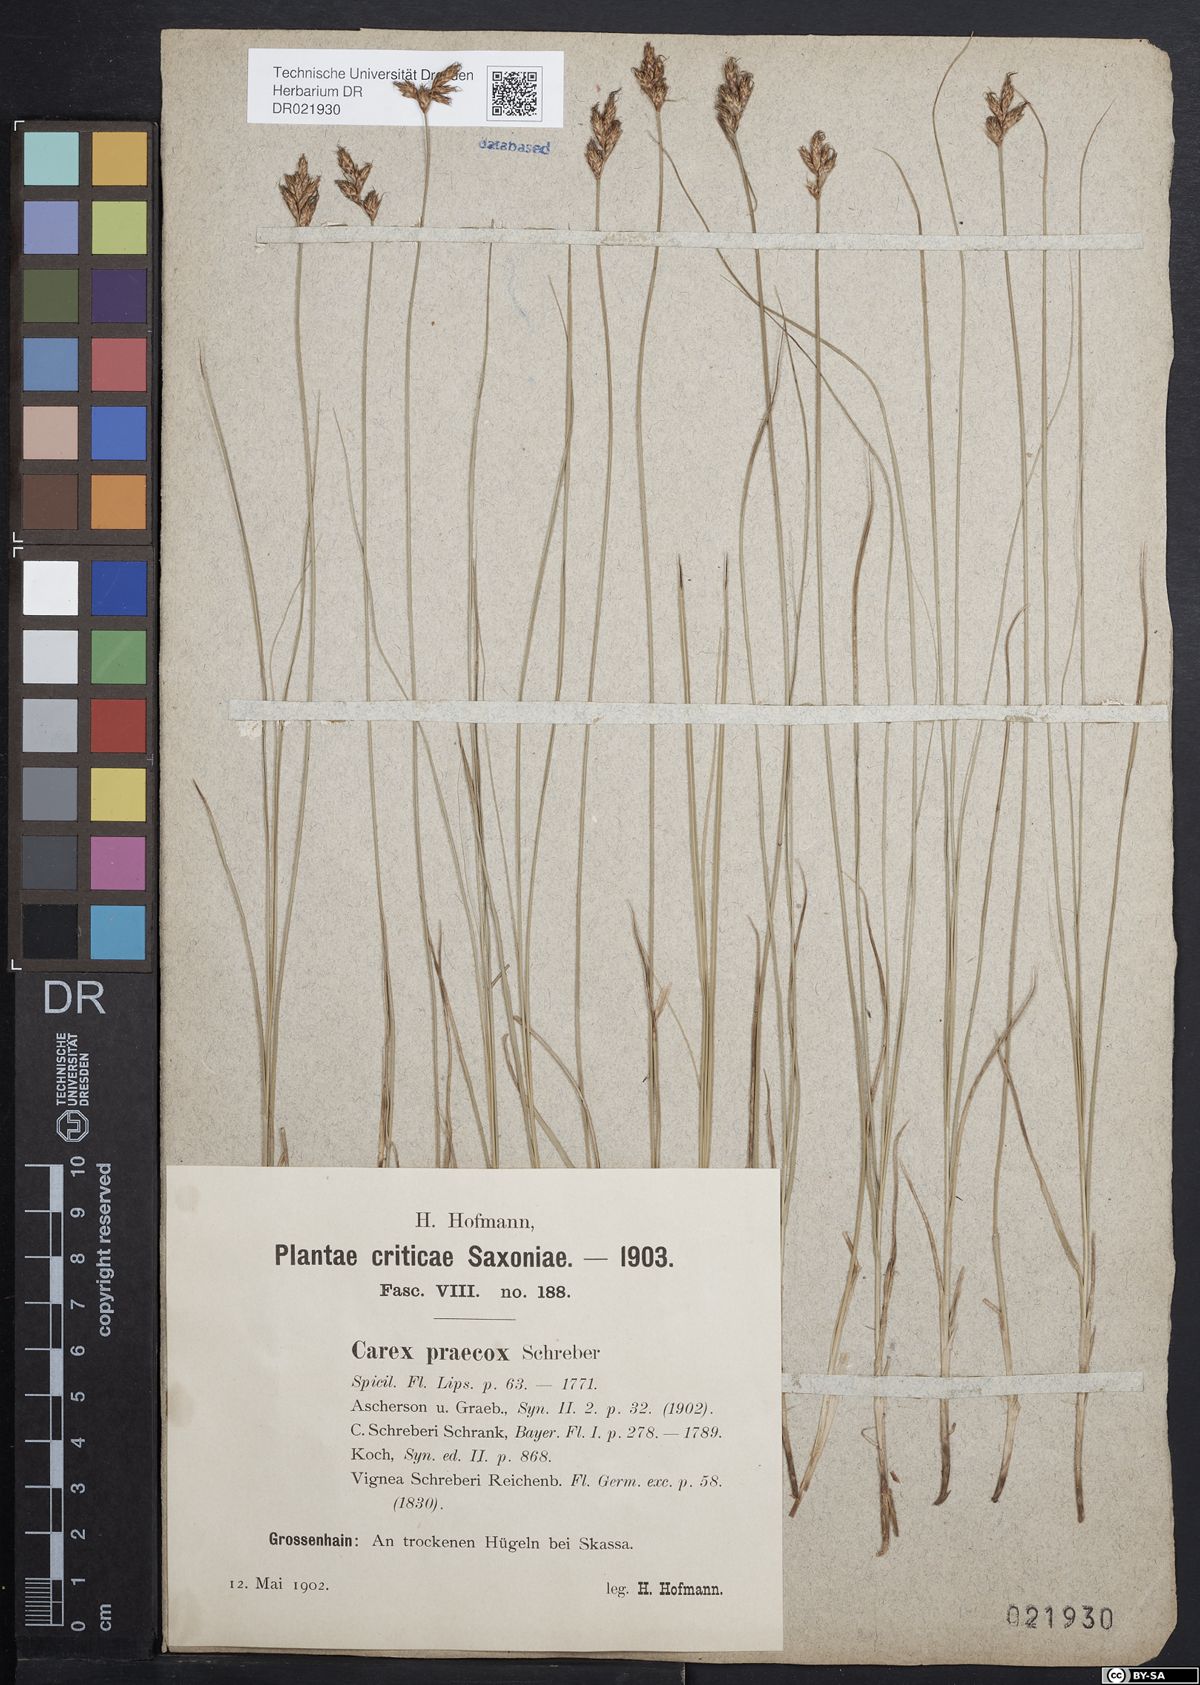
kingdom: Plantae
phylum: Tracheophyta
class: Liliopsida
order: Poales
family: Cyperaceae
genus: Carex
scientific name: Carex praecox
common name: Early sedge
